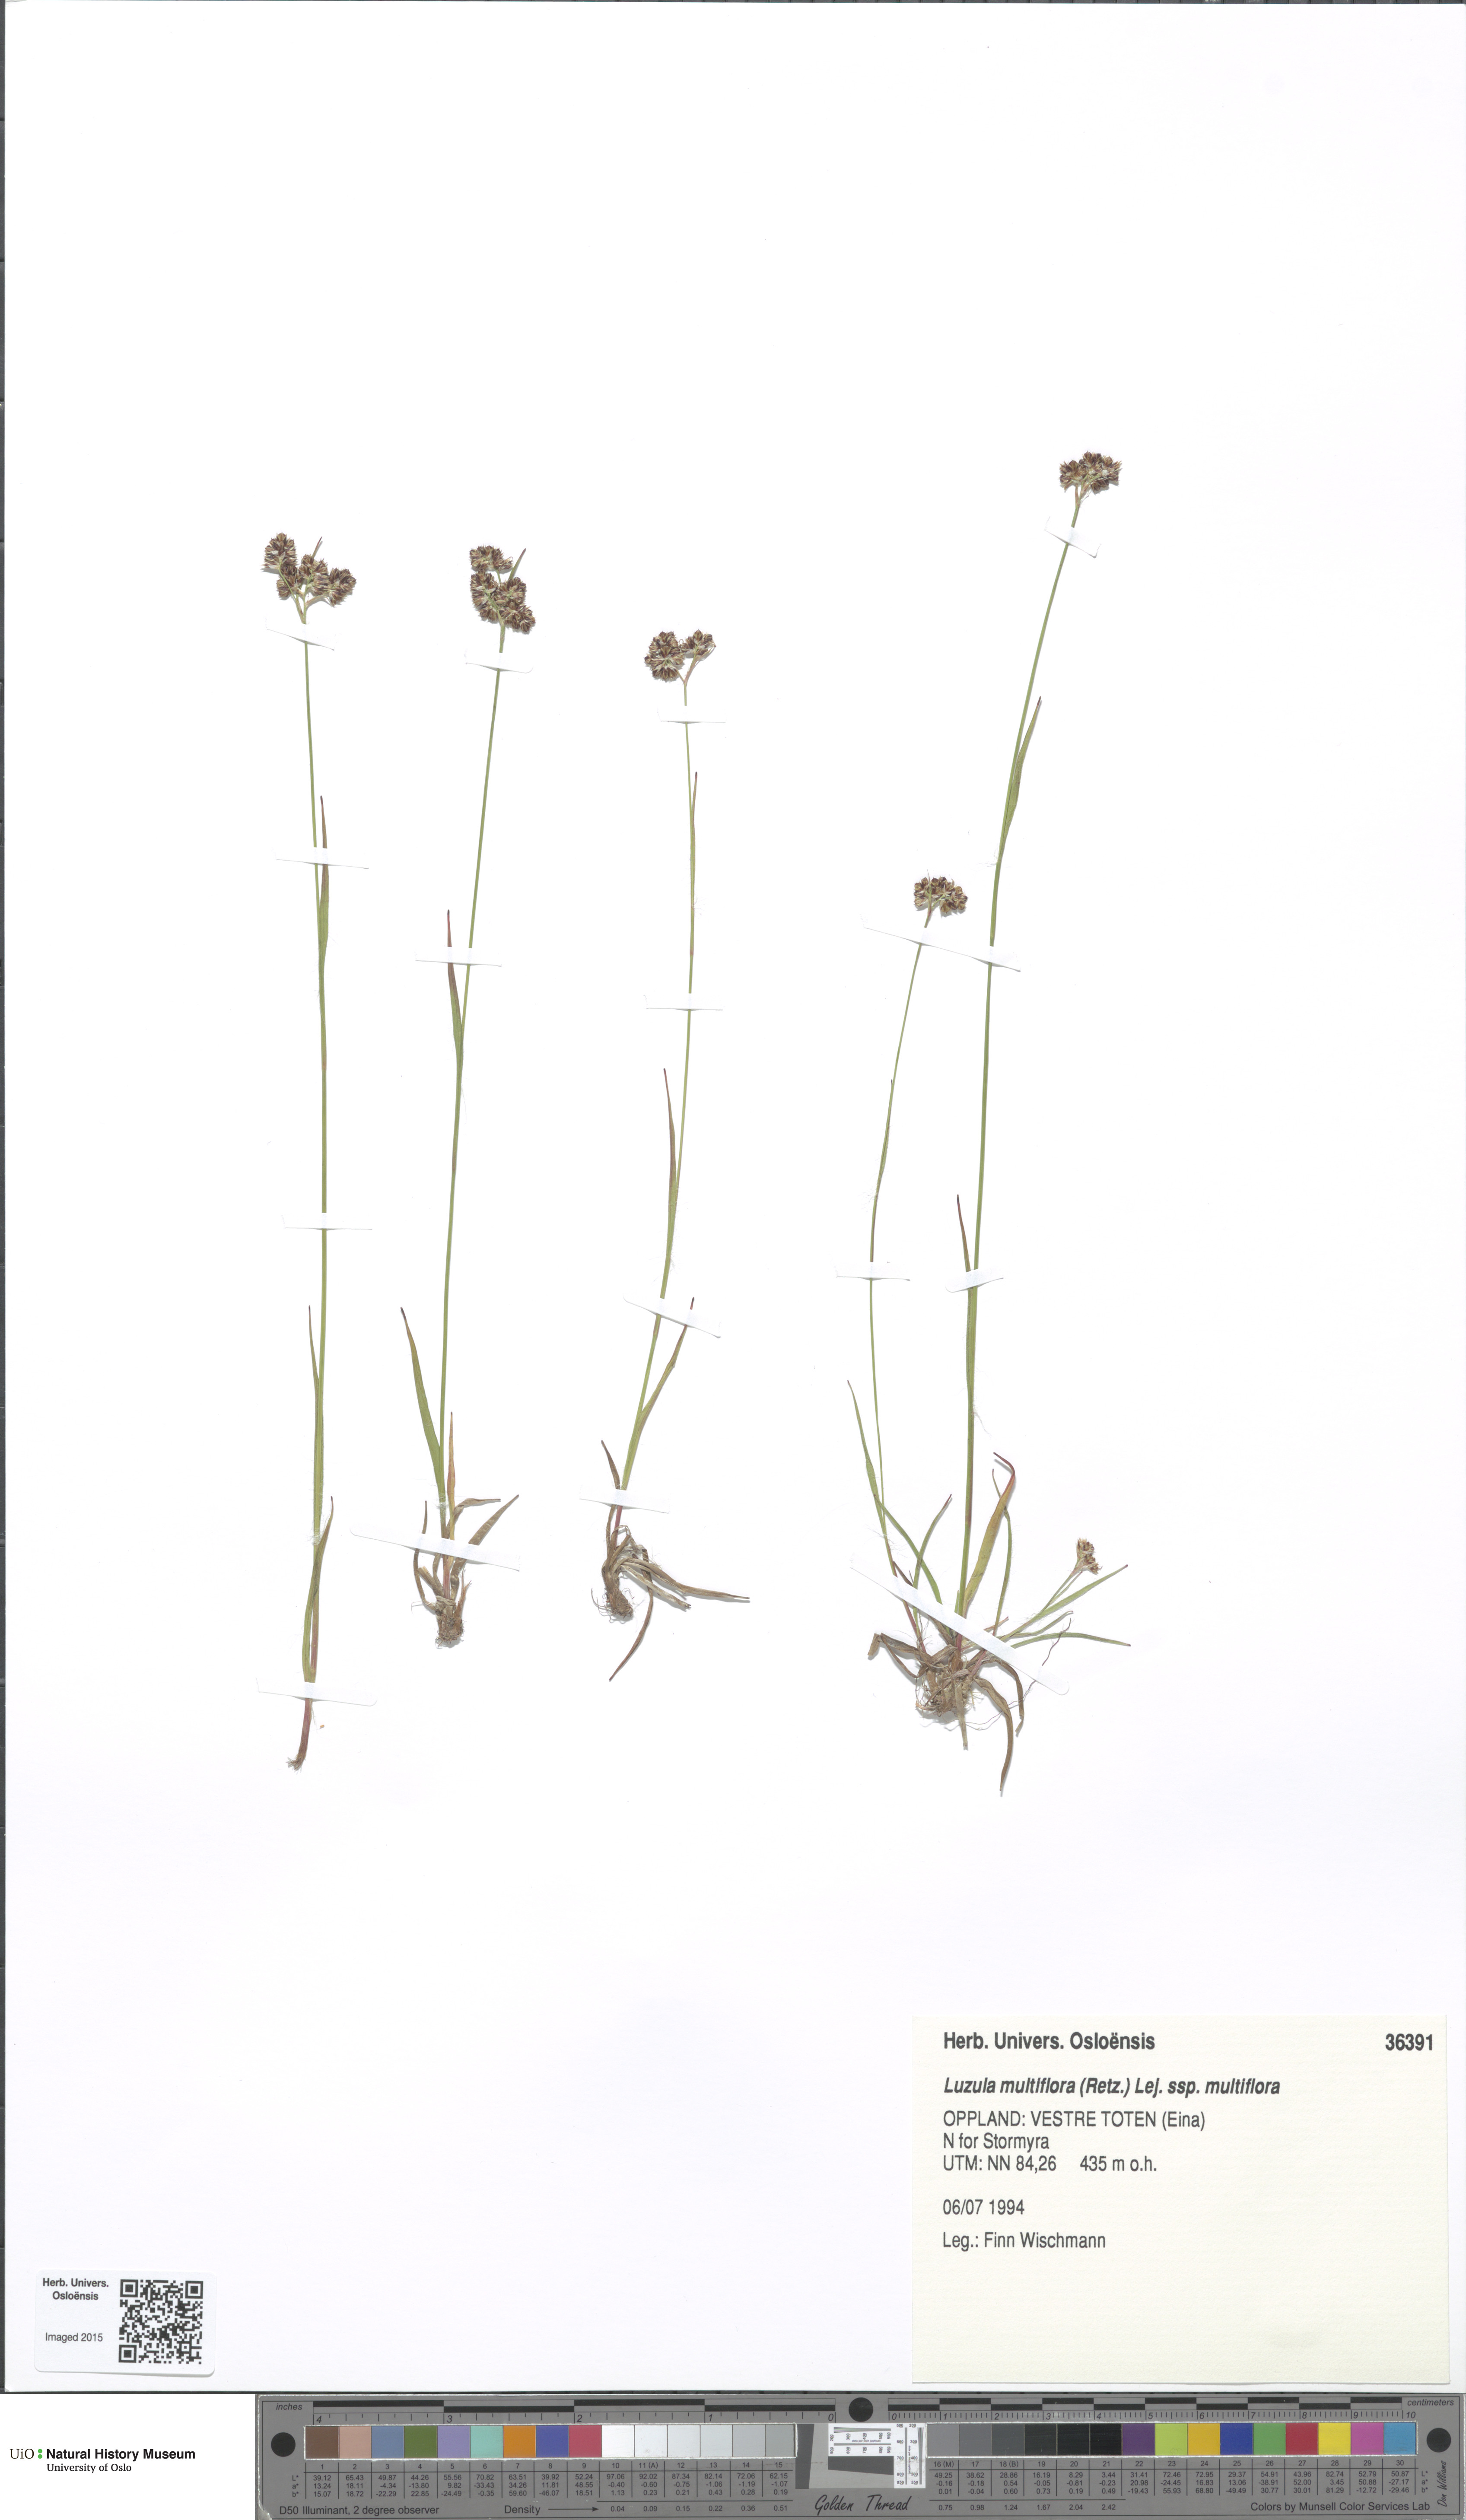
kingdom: Plantae
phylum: Tracheophyta
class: Liliopsida
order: Poales
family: Juncaceae
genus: Luzula
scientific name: Luzula multiflora
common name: Heath wood-rush
